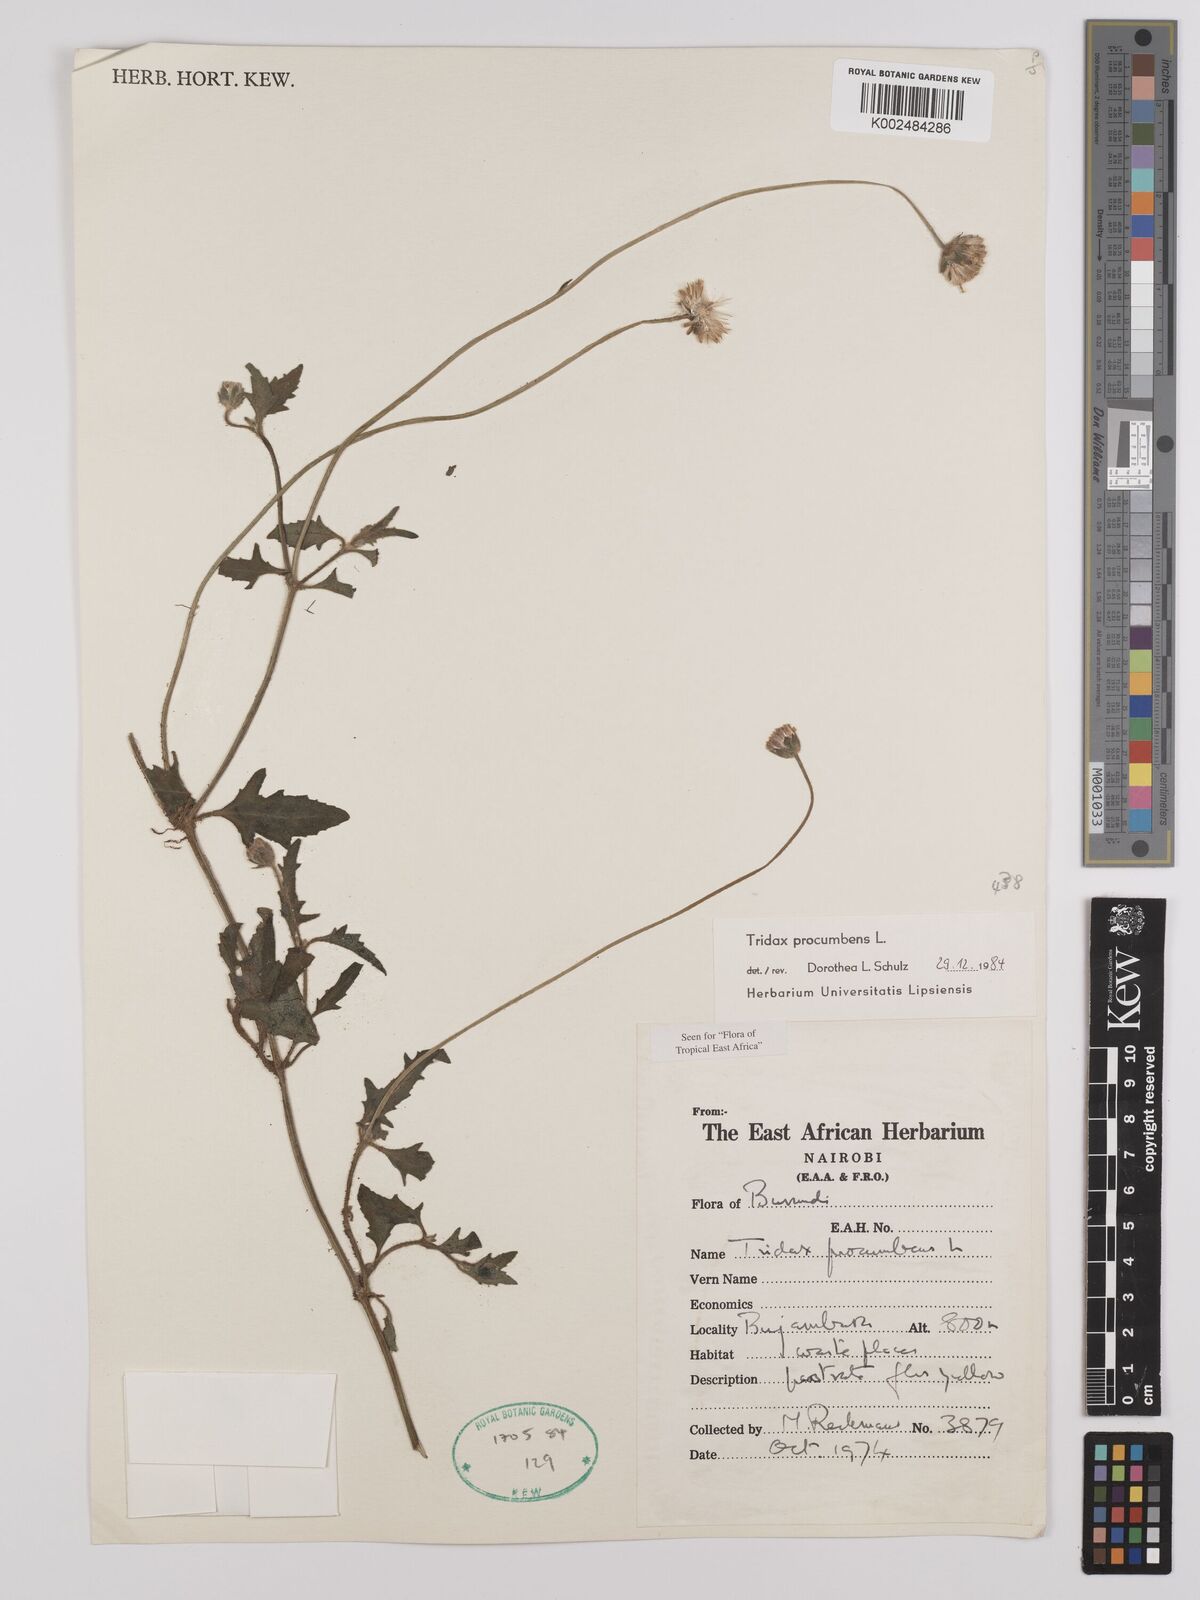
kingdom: Plantae
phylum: Tracheophyta
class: Magnoliopsida
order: Asterales
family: Asteraceae
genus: Tridax
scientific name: Tridax procumbens
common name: Coatbuttons
